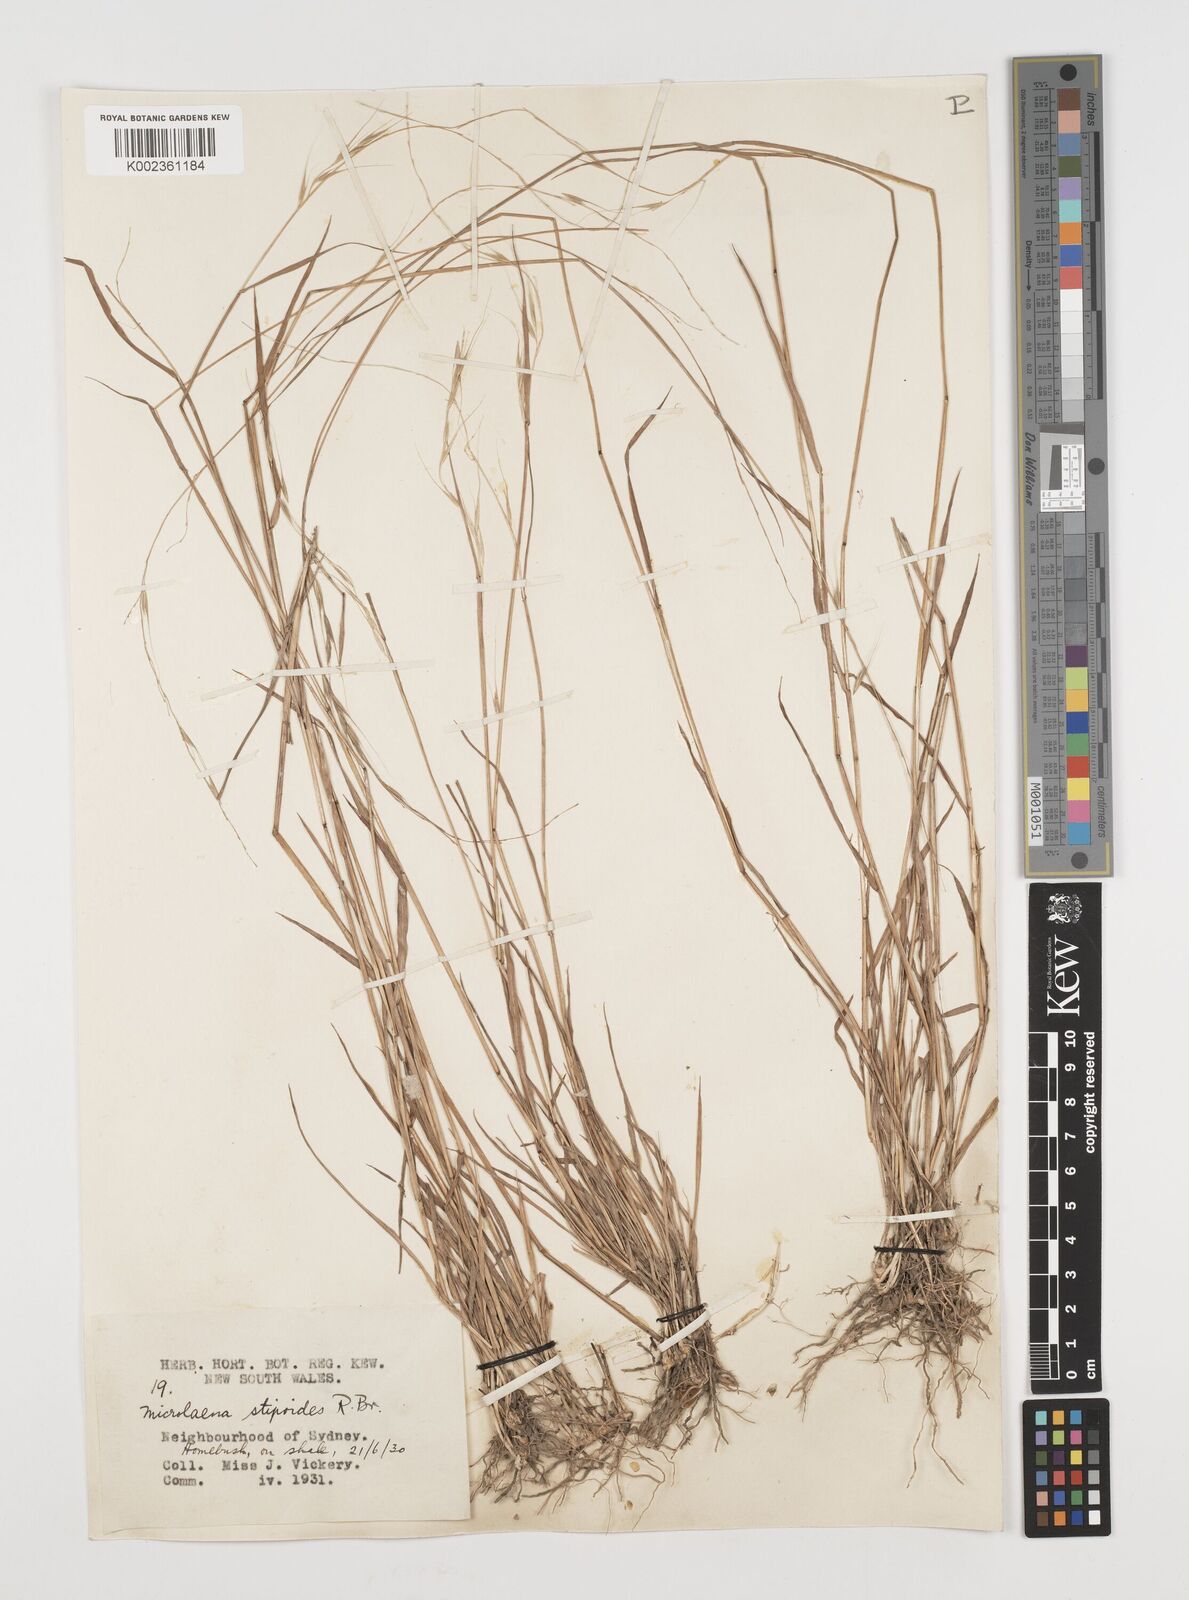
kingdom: Plantae
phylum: Tracheophyta
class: Liliopsida
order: Poales
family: Poaceae
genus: Microlaena
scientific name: Microlaena stipoides
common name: Meadow ricegrass
